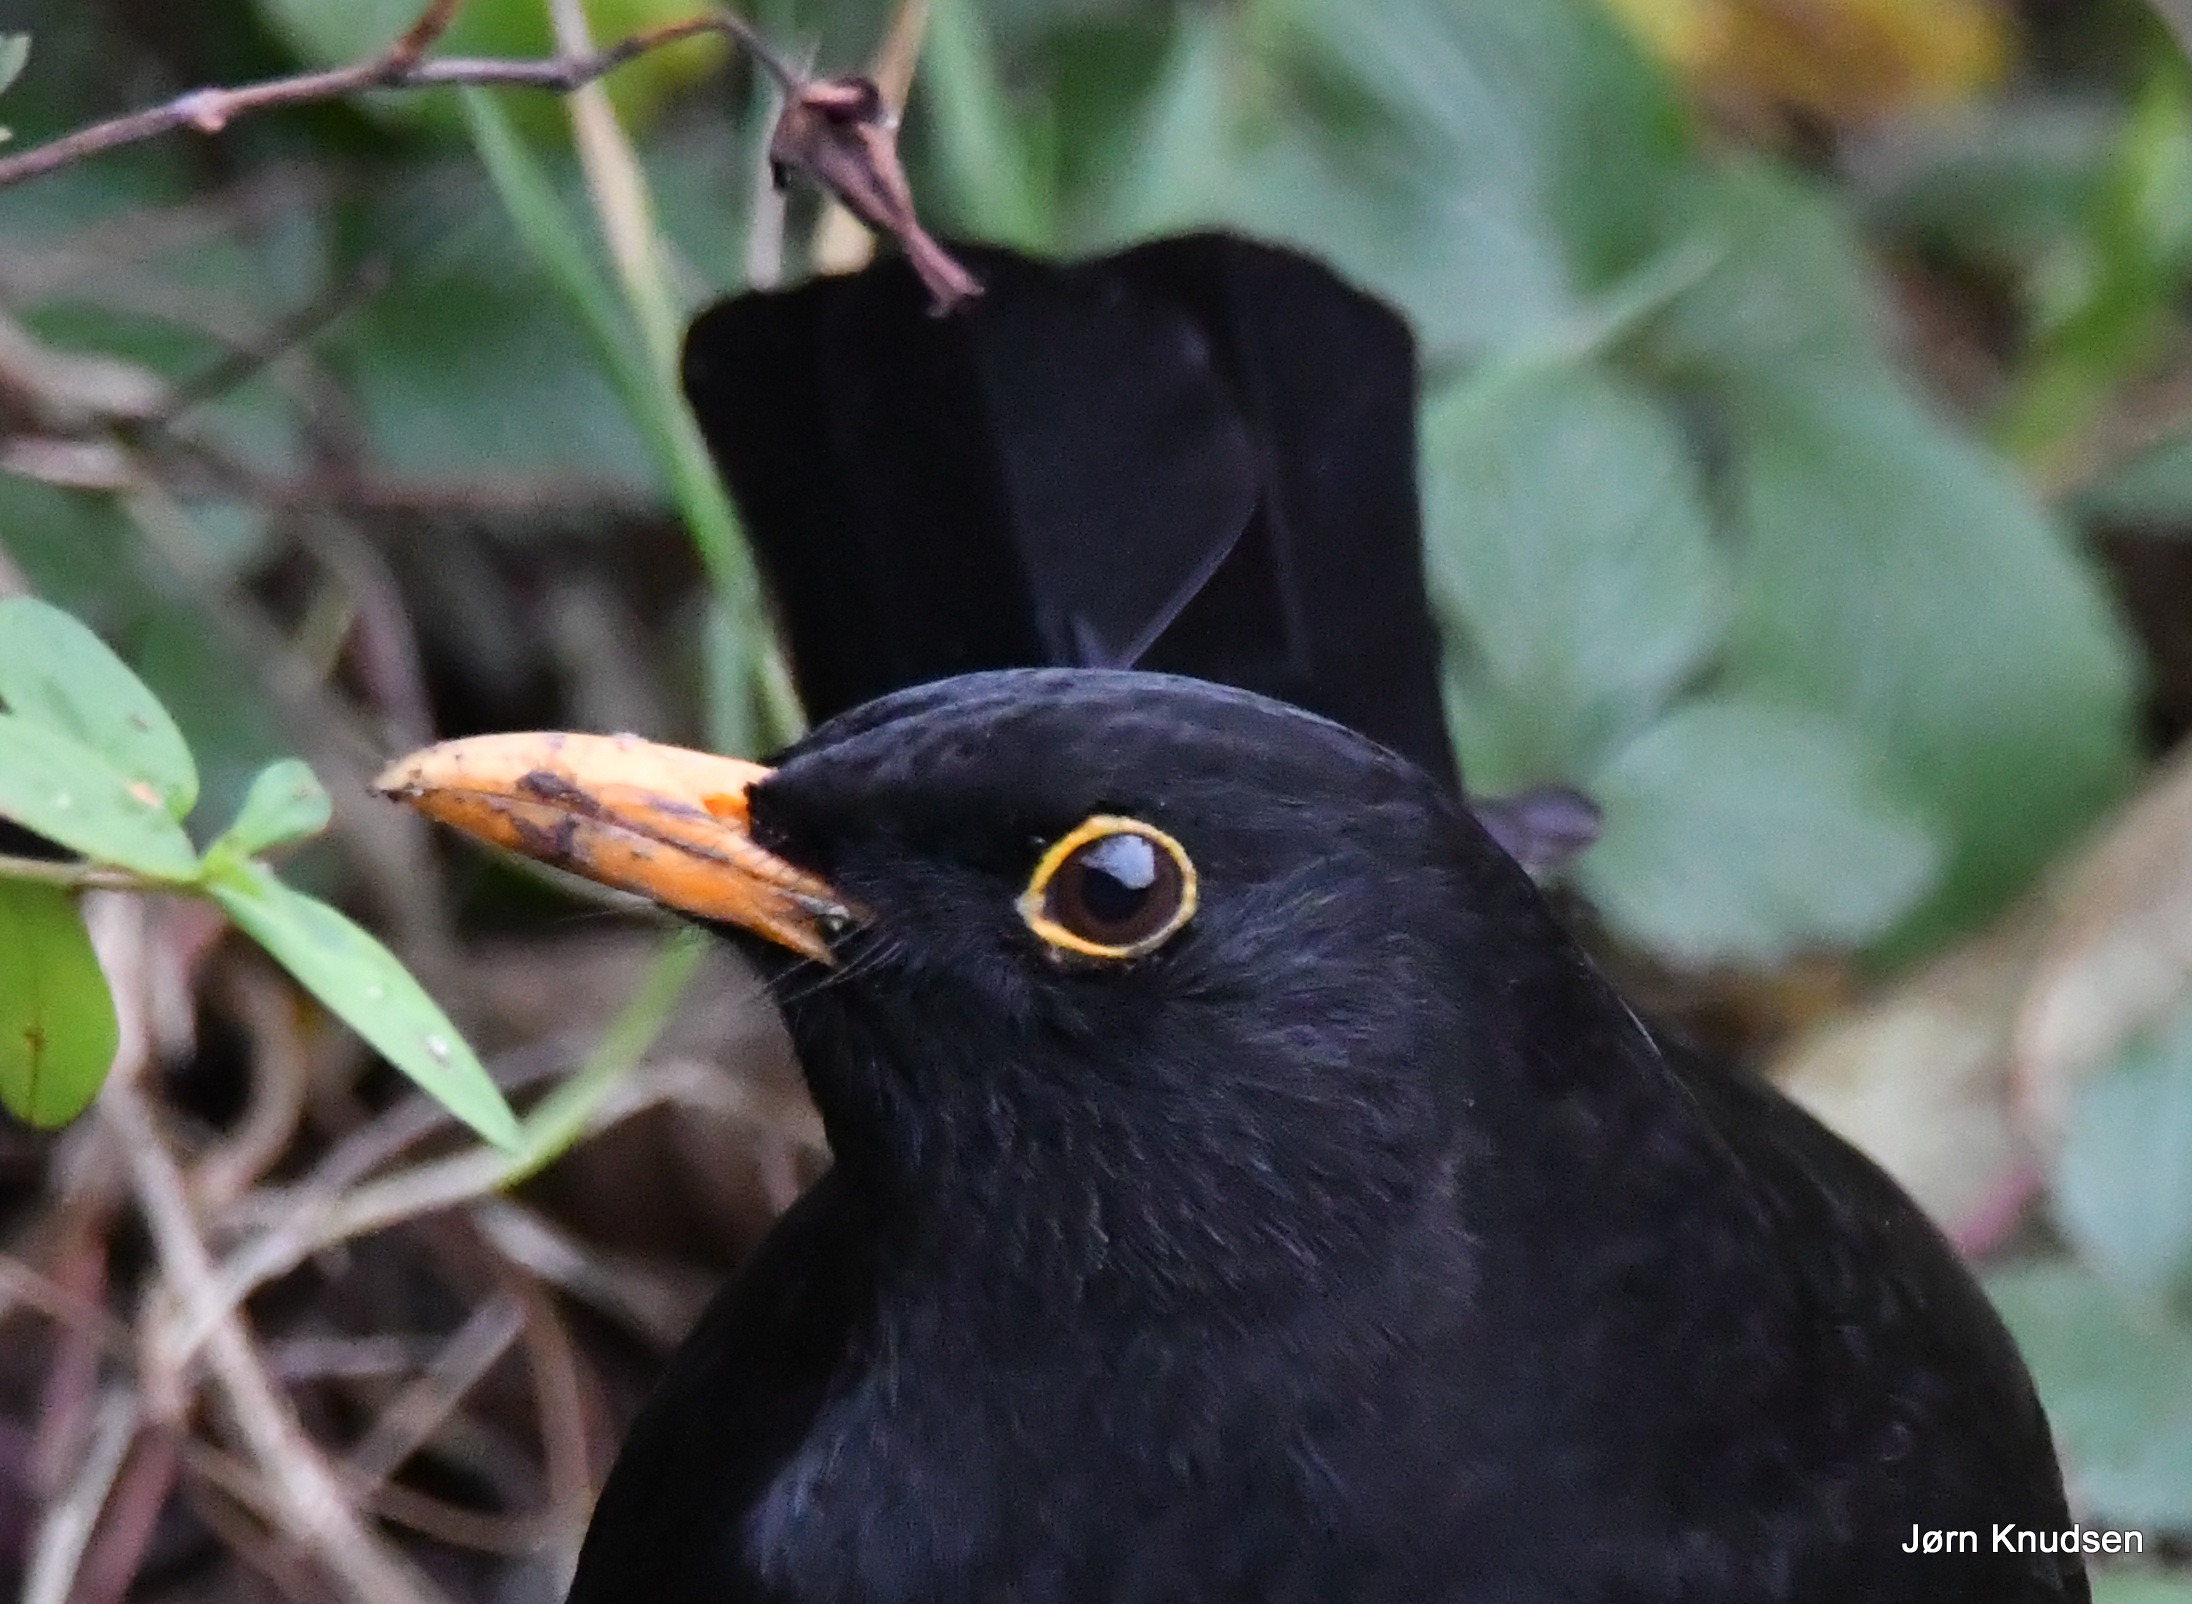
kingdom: Animalia
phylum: Chordata
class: Aves
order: Passeriformes
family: Turdidae
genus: Turdus
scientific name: Turdus merula
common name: Solsort
